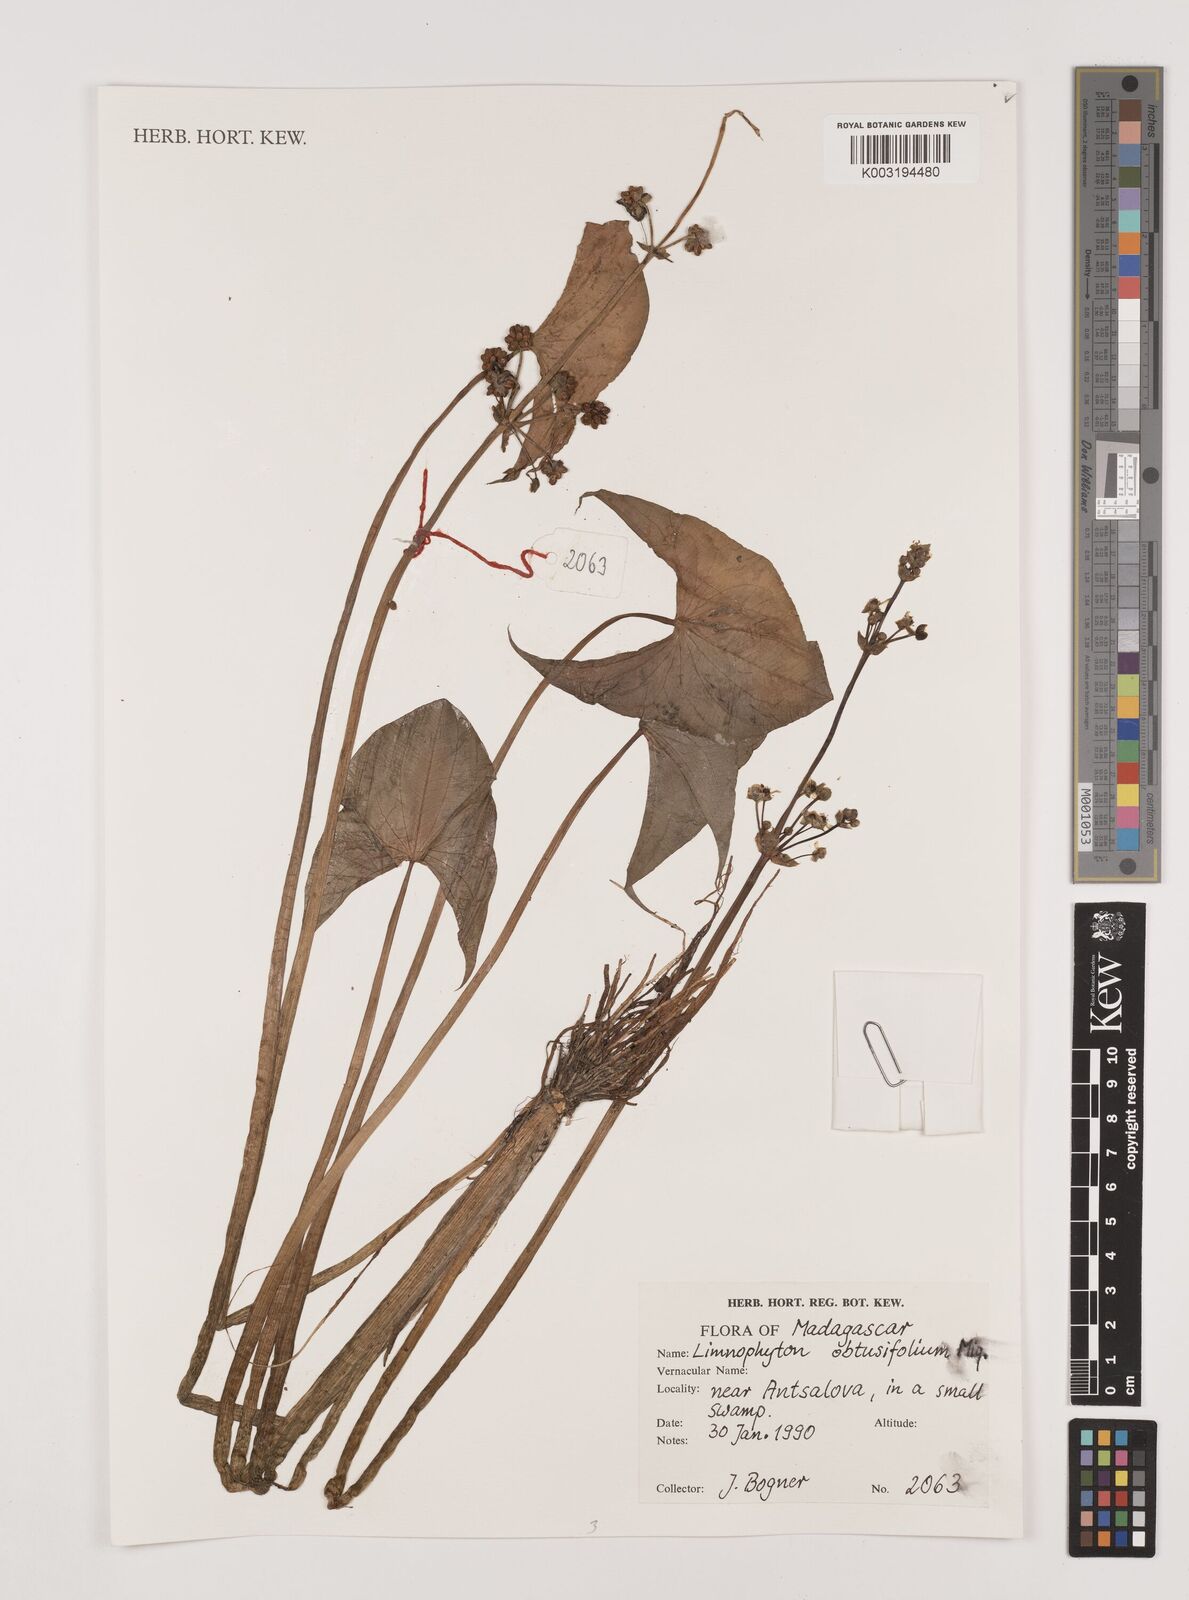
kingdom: Plantae
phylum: Tracheophyta
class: Liliopsida
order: Alismatales
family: Alismataceae
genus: Limnophyton
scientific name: Limnophyton obtusifolium
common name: Arrow head
